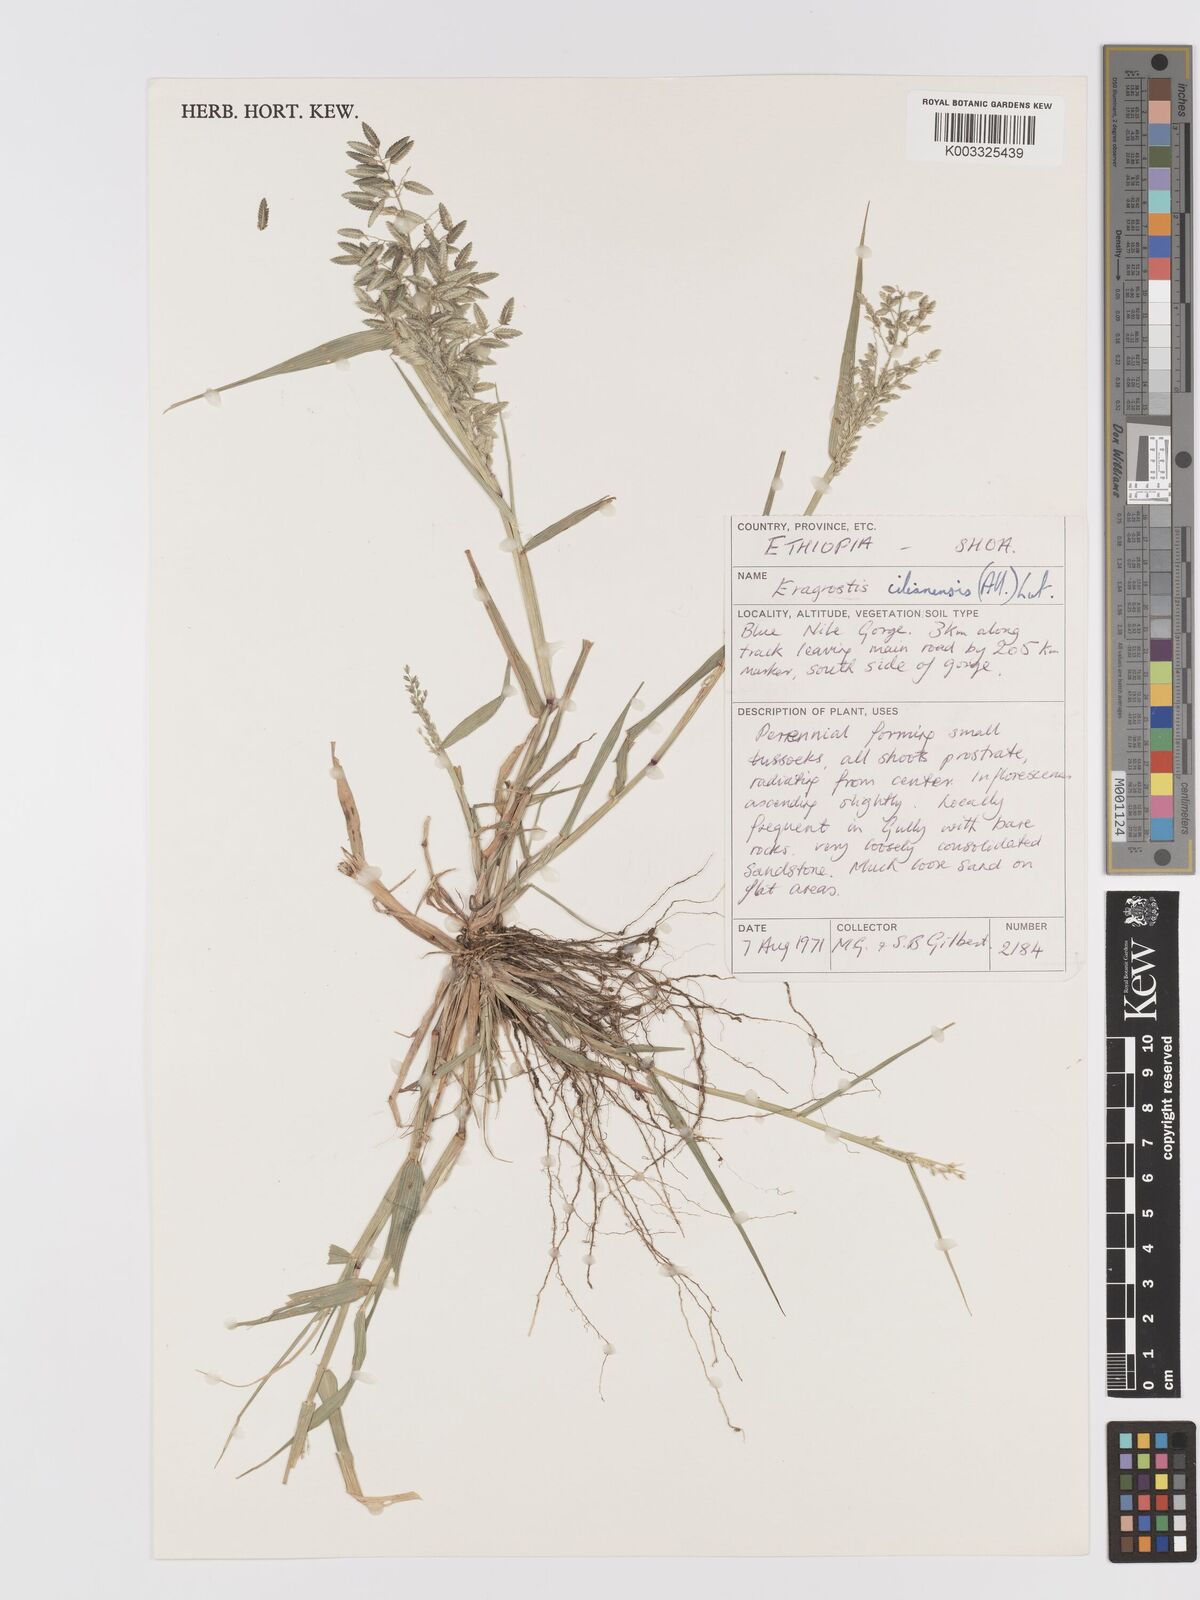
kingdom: Plantae
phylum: Tracheophyta
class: Liliopsida
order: Poales
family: Poaceae
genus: Eragrostis
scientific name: Eragrostis cilianensis
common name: Stinkgrass
